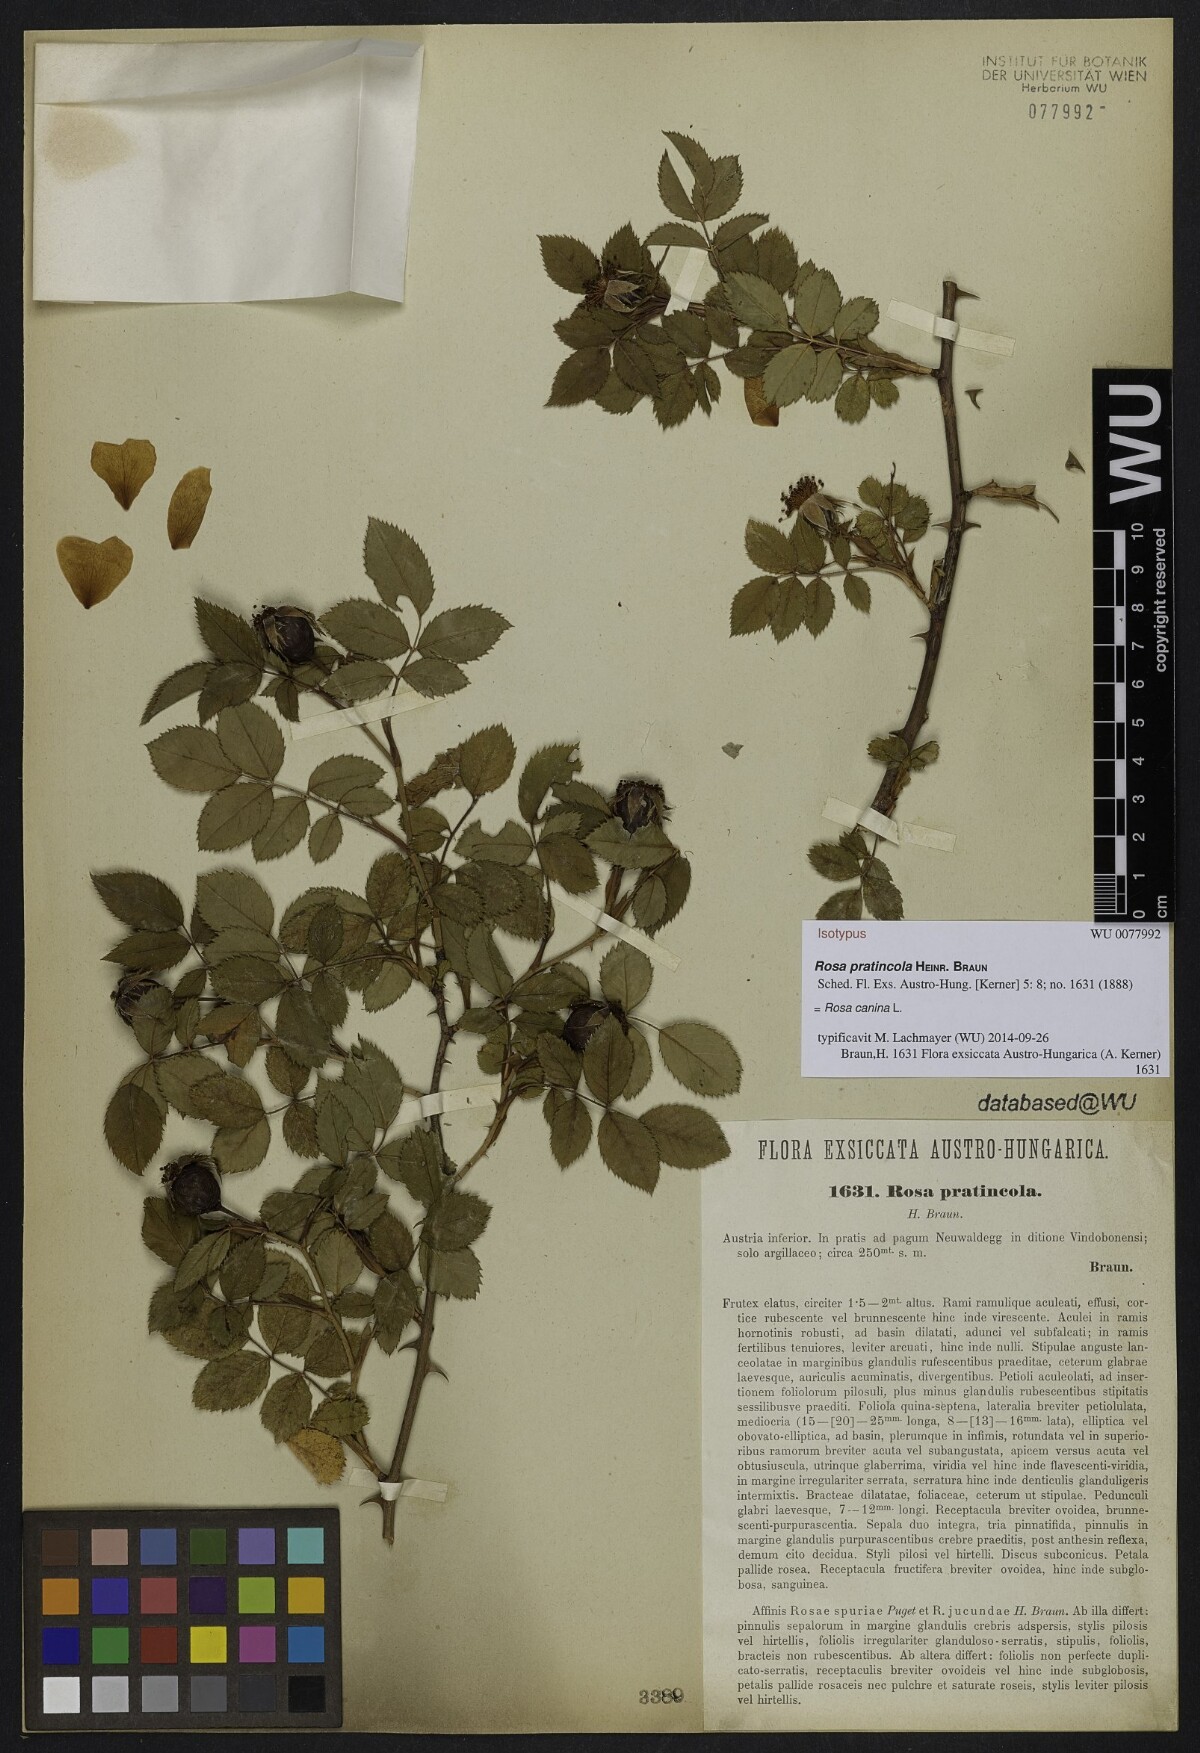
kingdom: Plantae
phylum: Tracheophyta
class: Magnoliopsida
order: Rosales
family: Rosaceae
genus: Rosa
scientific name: Rosa canina
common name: Dog rose
